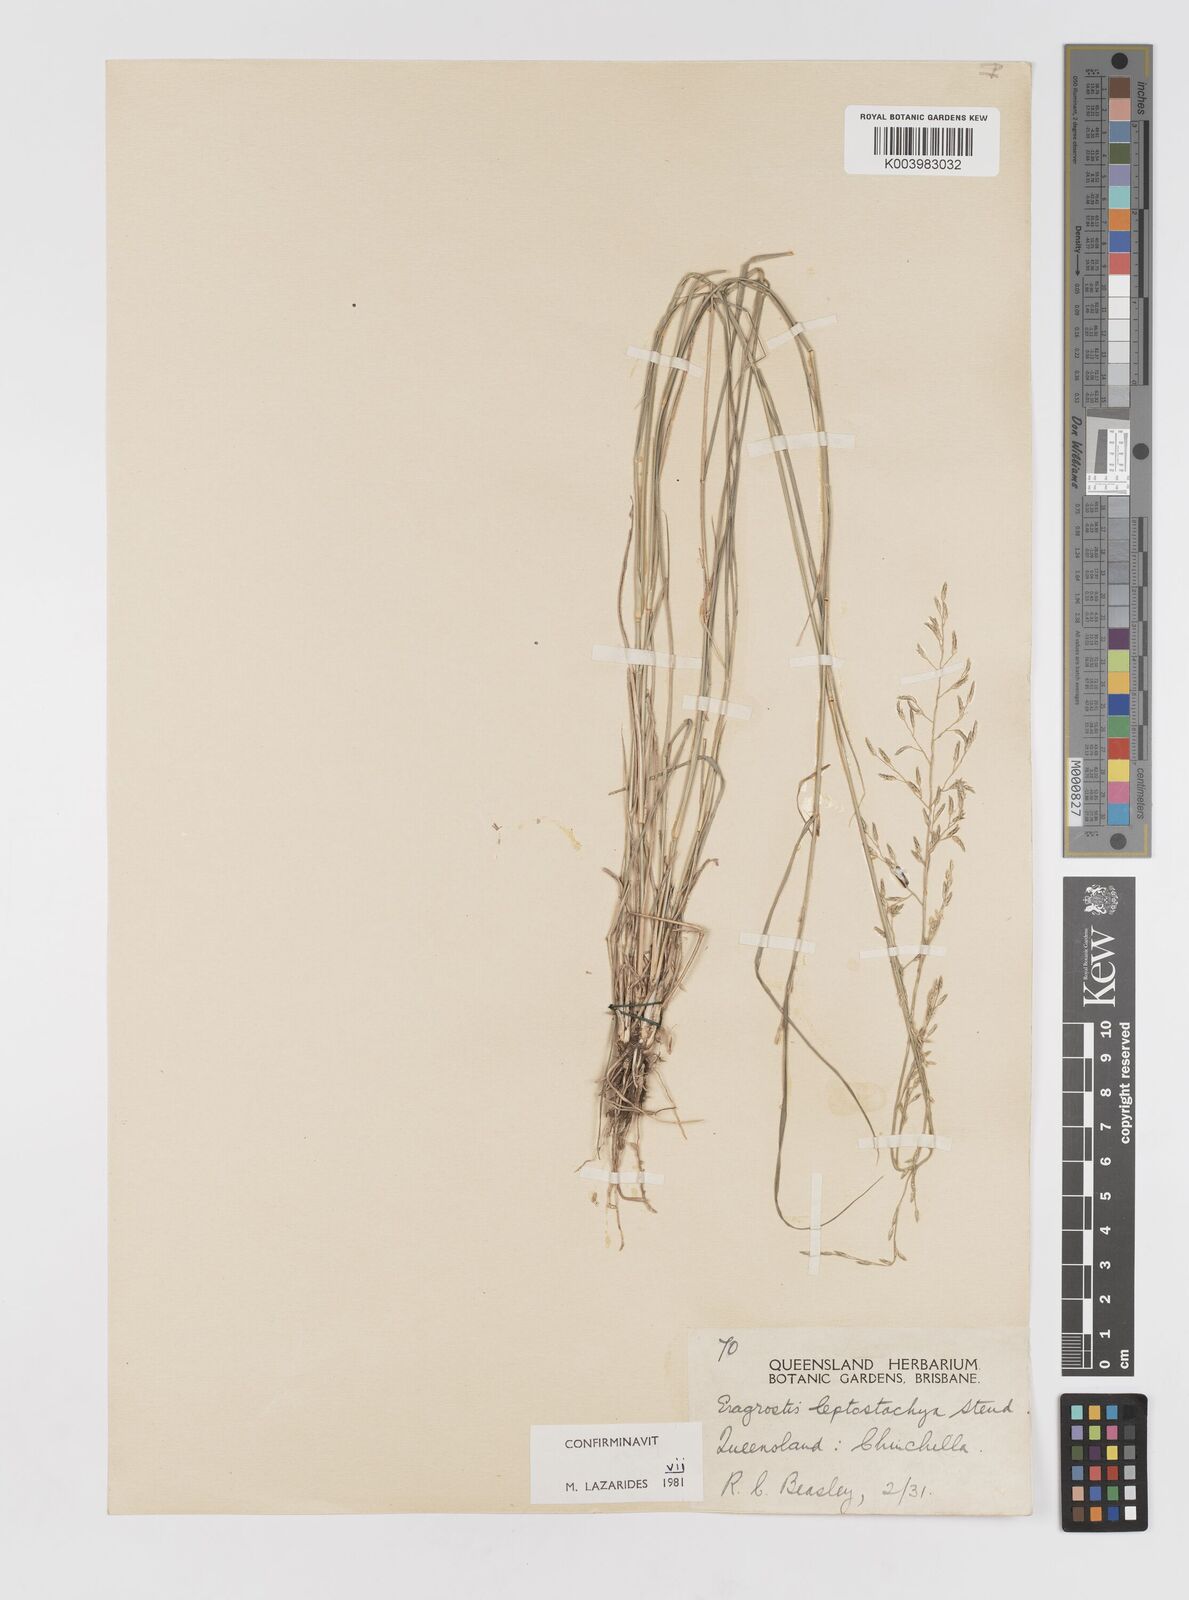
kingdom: Plantae
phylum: Tracheophyta
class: Liliopsida
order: Poales
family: Poaceae
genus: Eragrostis
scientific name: Eragrostis leptostachya
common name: Australian lovegrass
